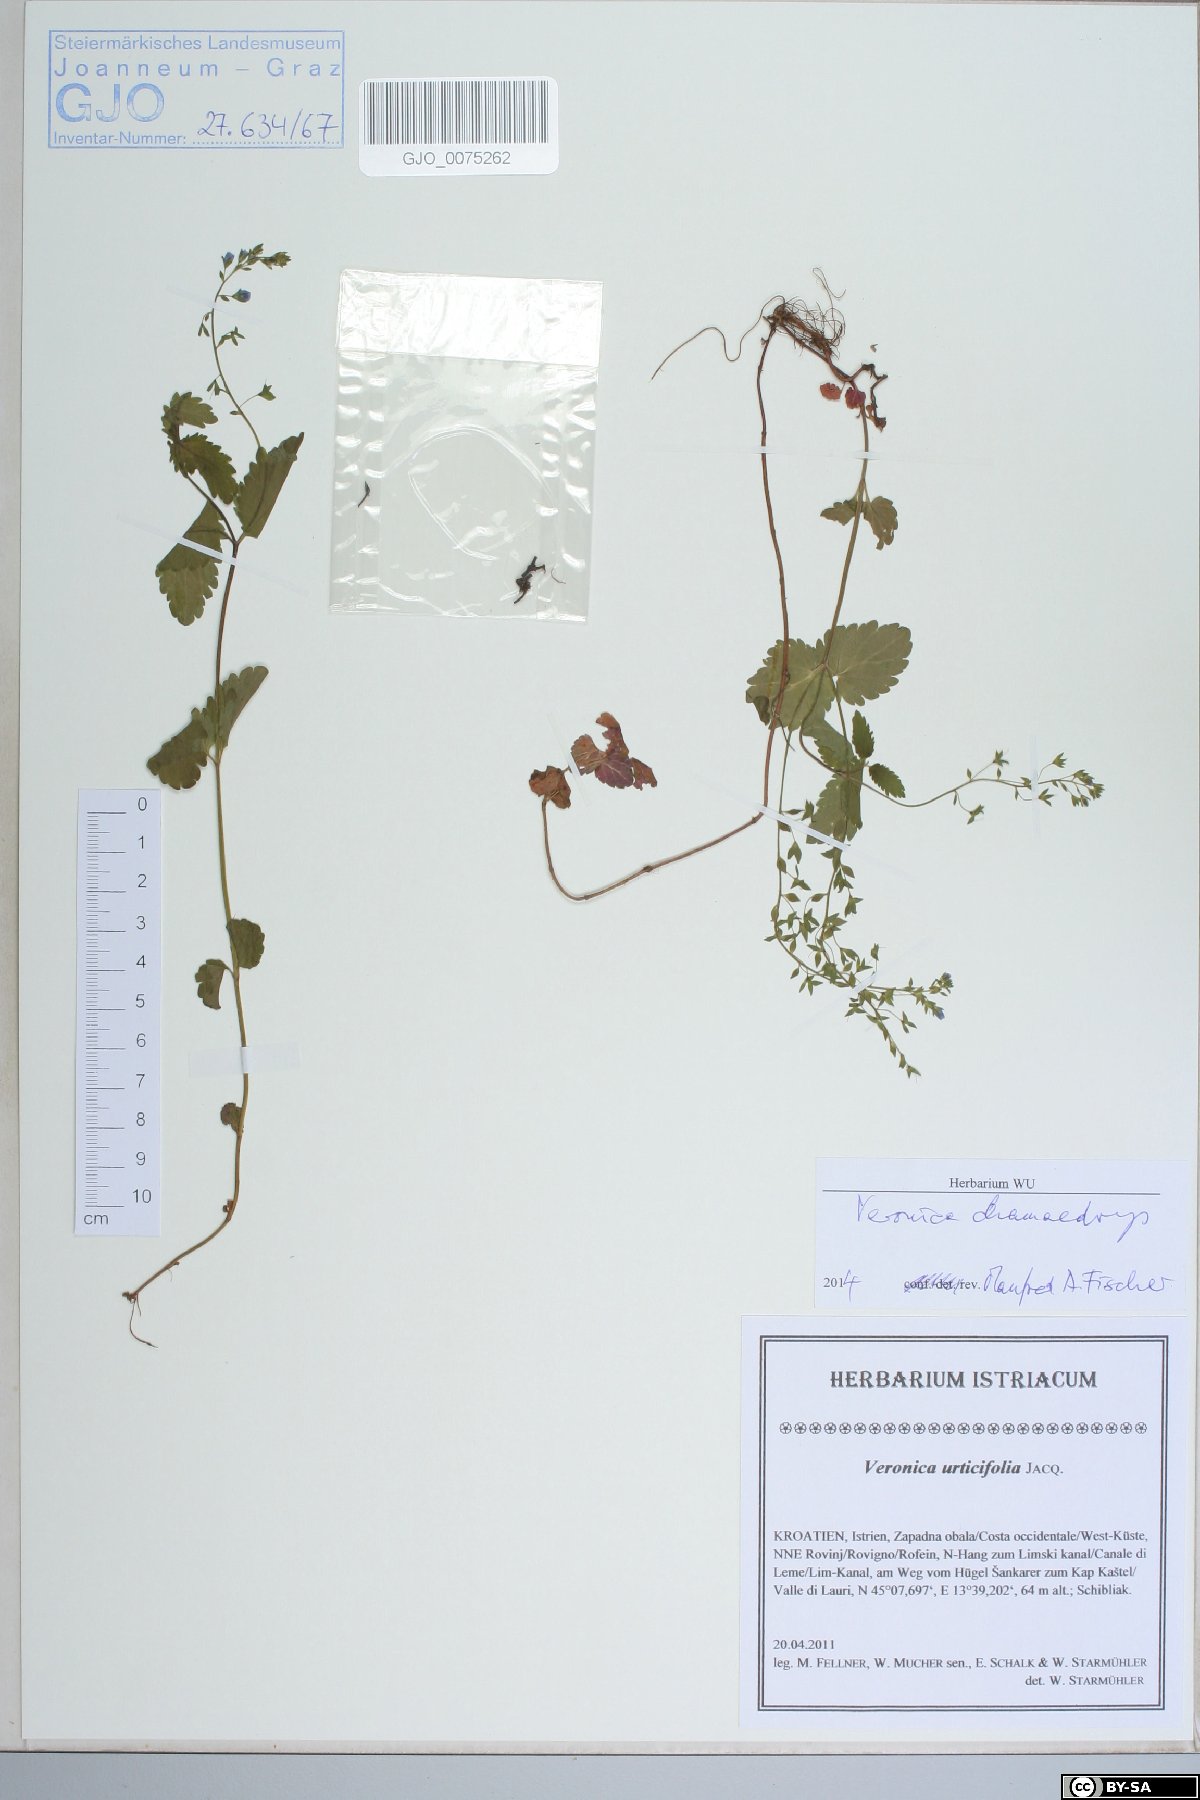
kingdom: Plantae
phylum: Tracheophyta
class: Magnoliopsida
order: Lamiales
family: Plantaginaceae
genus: Veronica
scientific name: Veronica chamaedrys
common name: Germander speedwell
